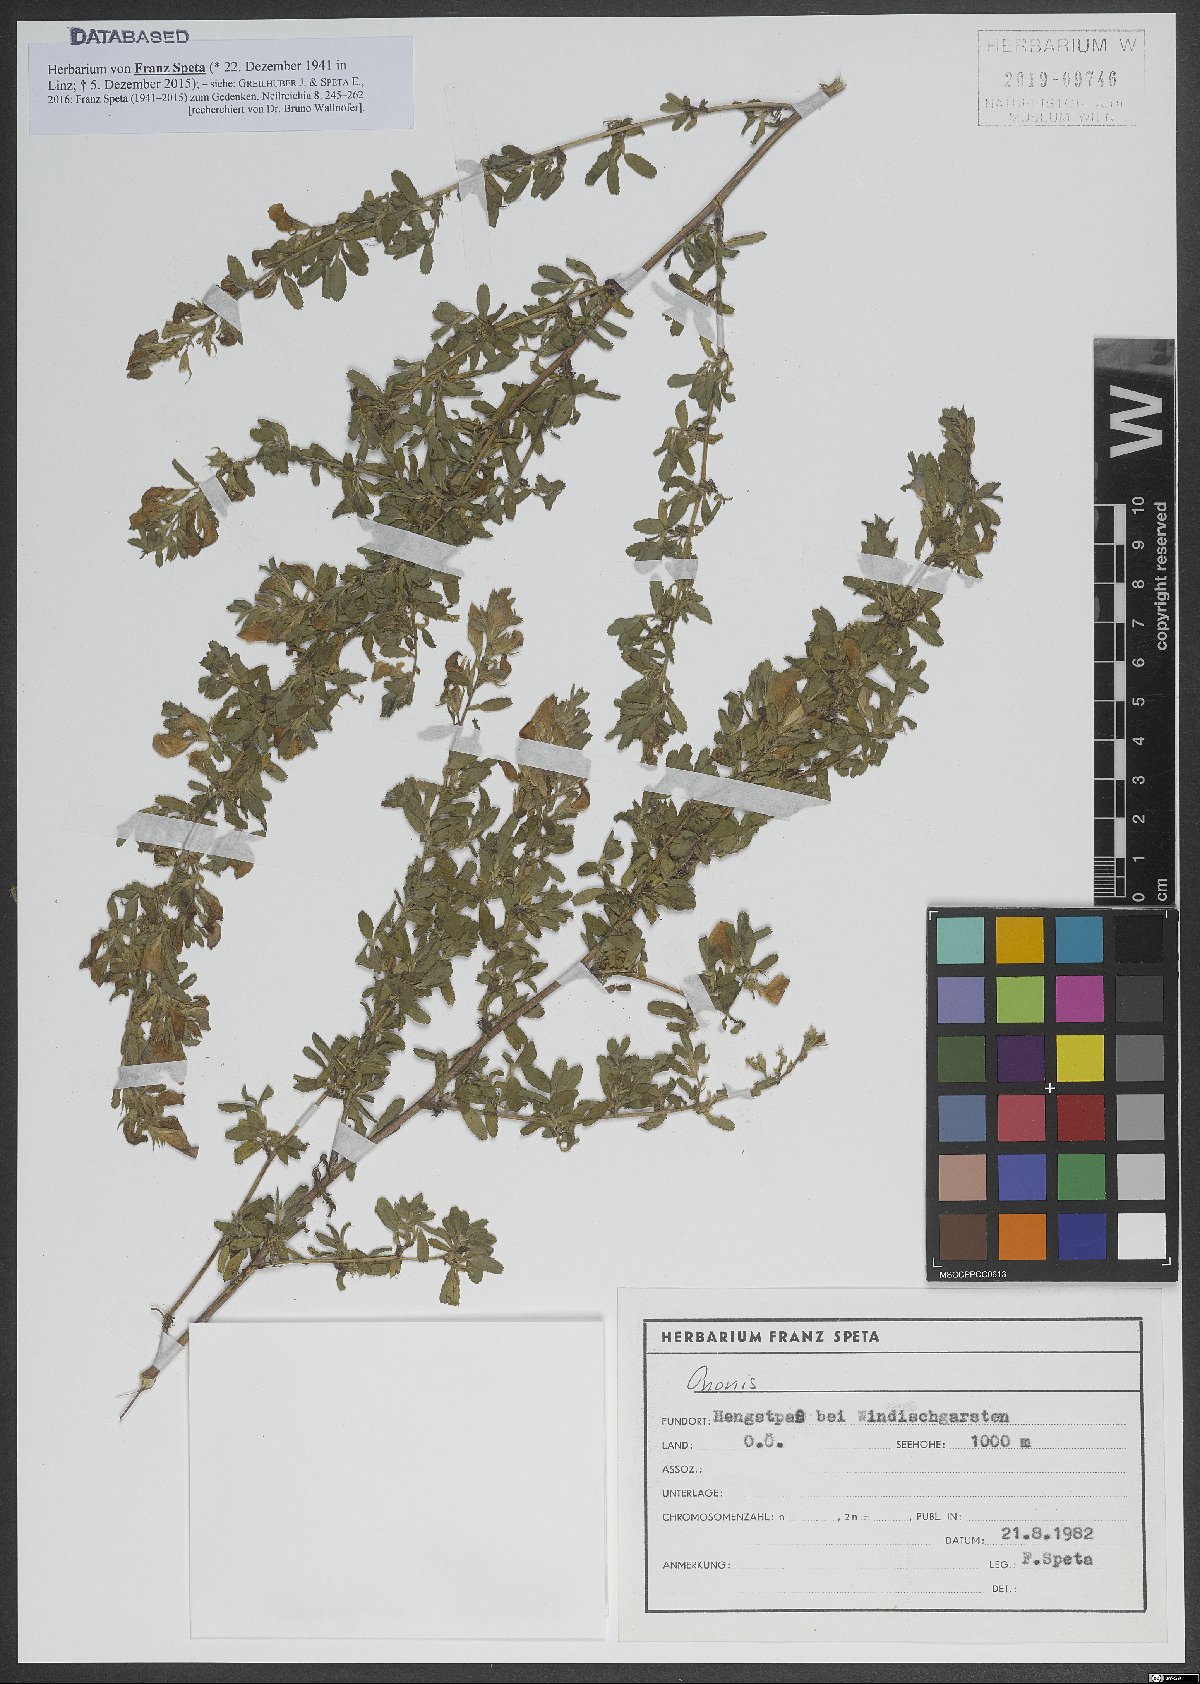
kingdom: Plantae
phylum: Tracheophyta
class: Magnoliopsida
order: Fabales
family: Fabaceae
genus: Ononis
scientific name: Ononis
